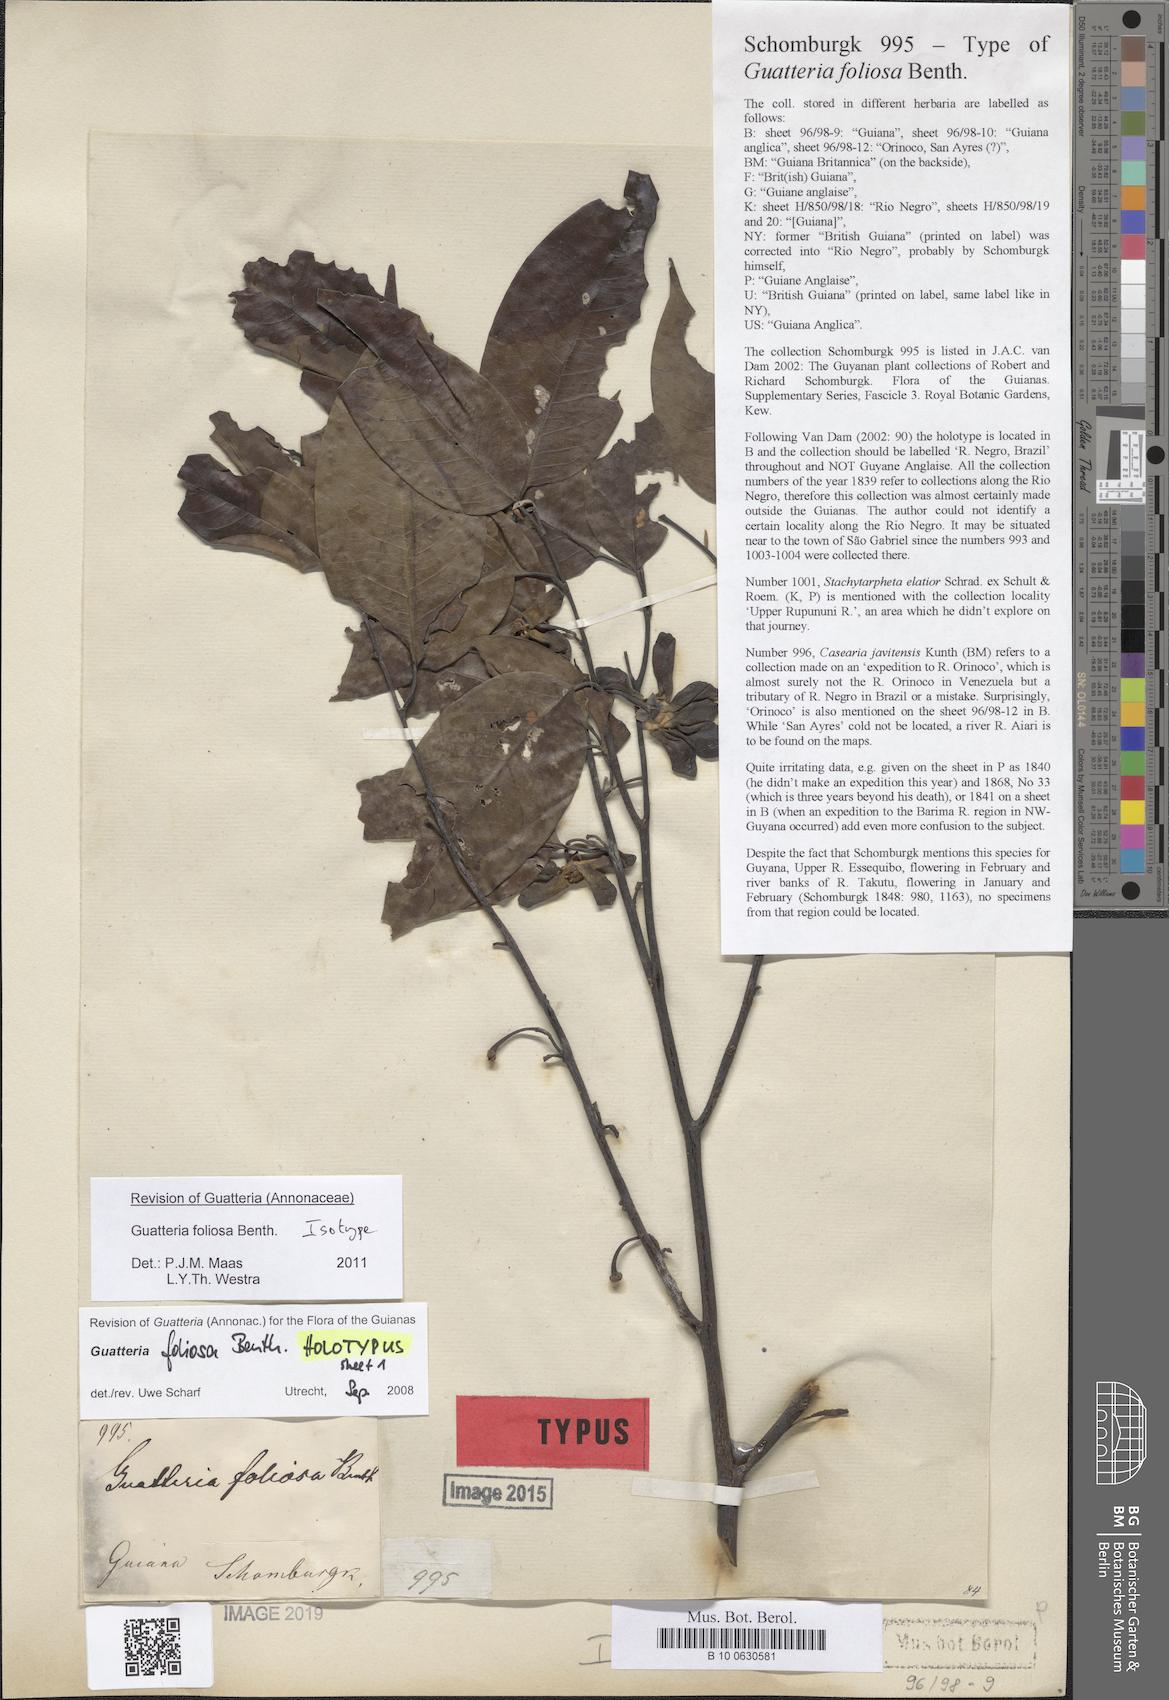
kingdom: Plantae
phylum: Tracheophyta
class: Magnoliopsida
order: Magnoliales
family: Annonaceae
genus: Guatteria
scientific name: Guatteria foliosa
